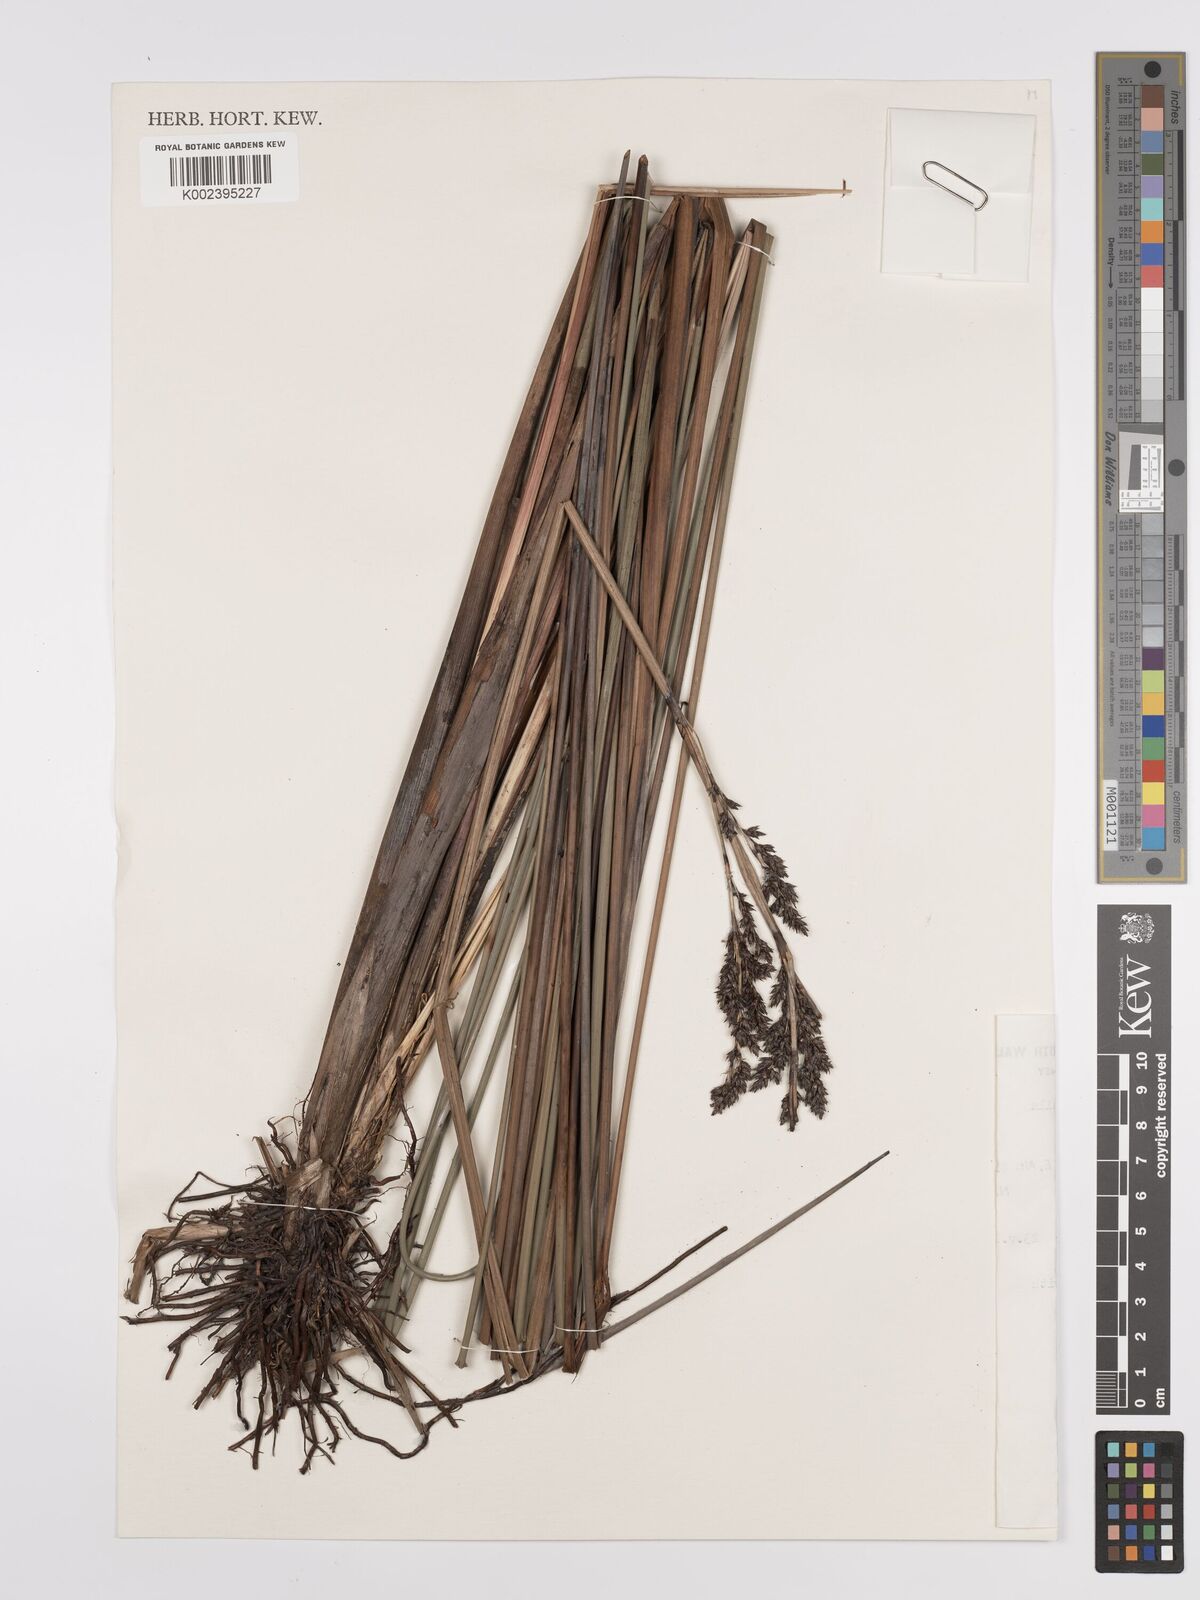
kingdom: Plantae
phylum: Tracheophyta
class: Liliopsida
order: Poales
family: Cyperaceae
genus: Machaerina
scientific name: Machaerina teretifolia
